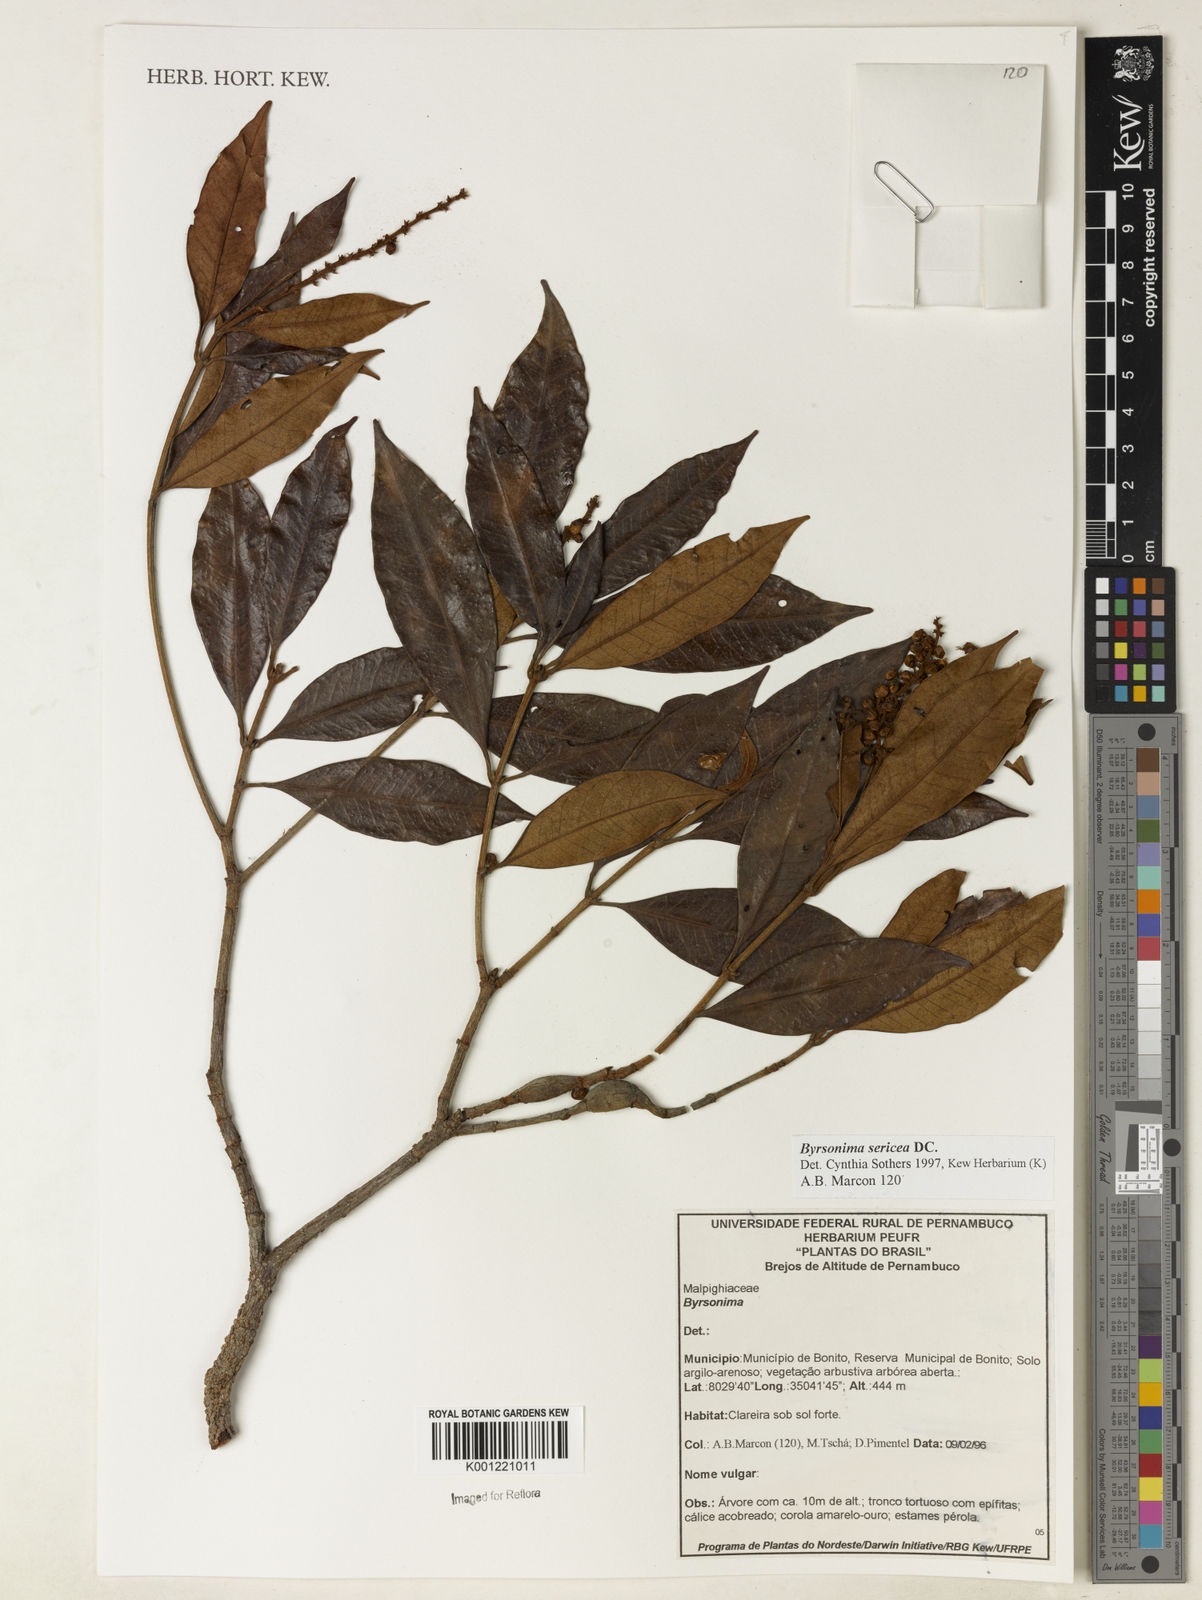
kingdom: Plantae
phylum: Tracheophyta
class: Magnoliopsida
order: Malpighiales
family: Malpighiaceae
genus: Byrsonima
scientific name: Byrsonima sericea
